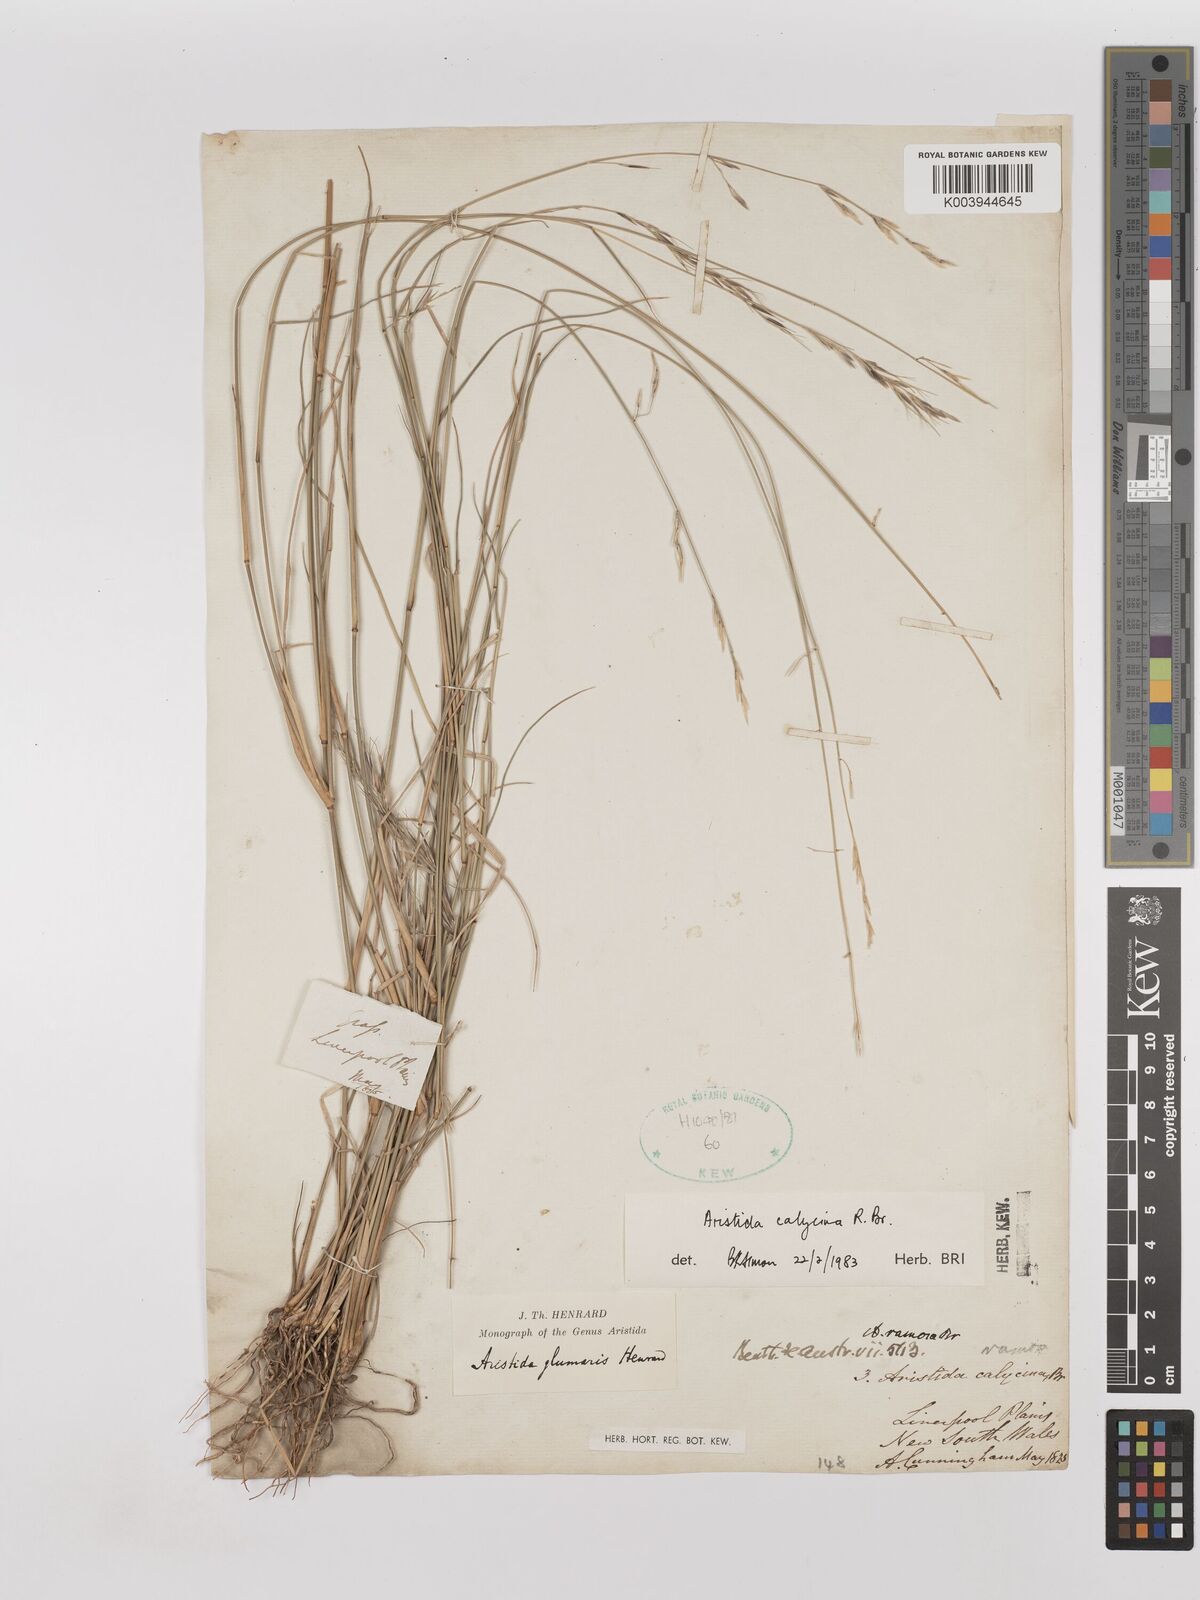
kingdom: Plantae
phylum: Tracheophyta
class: Liliopsida
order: Poales
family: Poaceae
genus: Aristida
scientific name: Aristida calycina
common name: Dark wire grass
